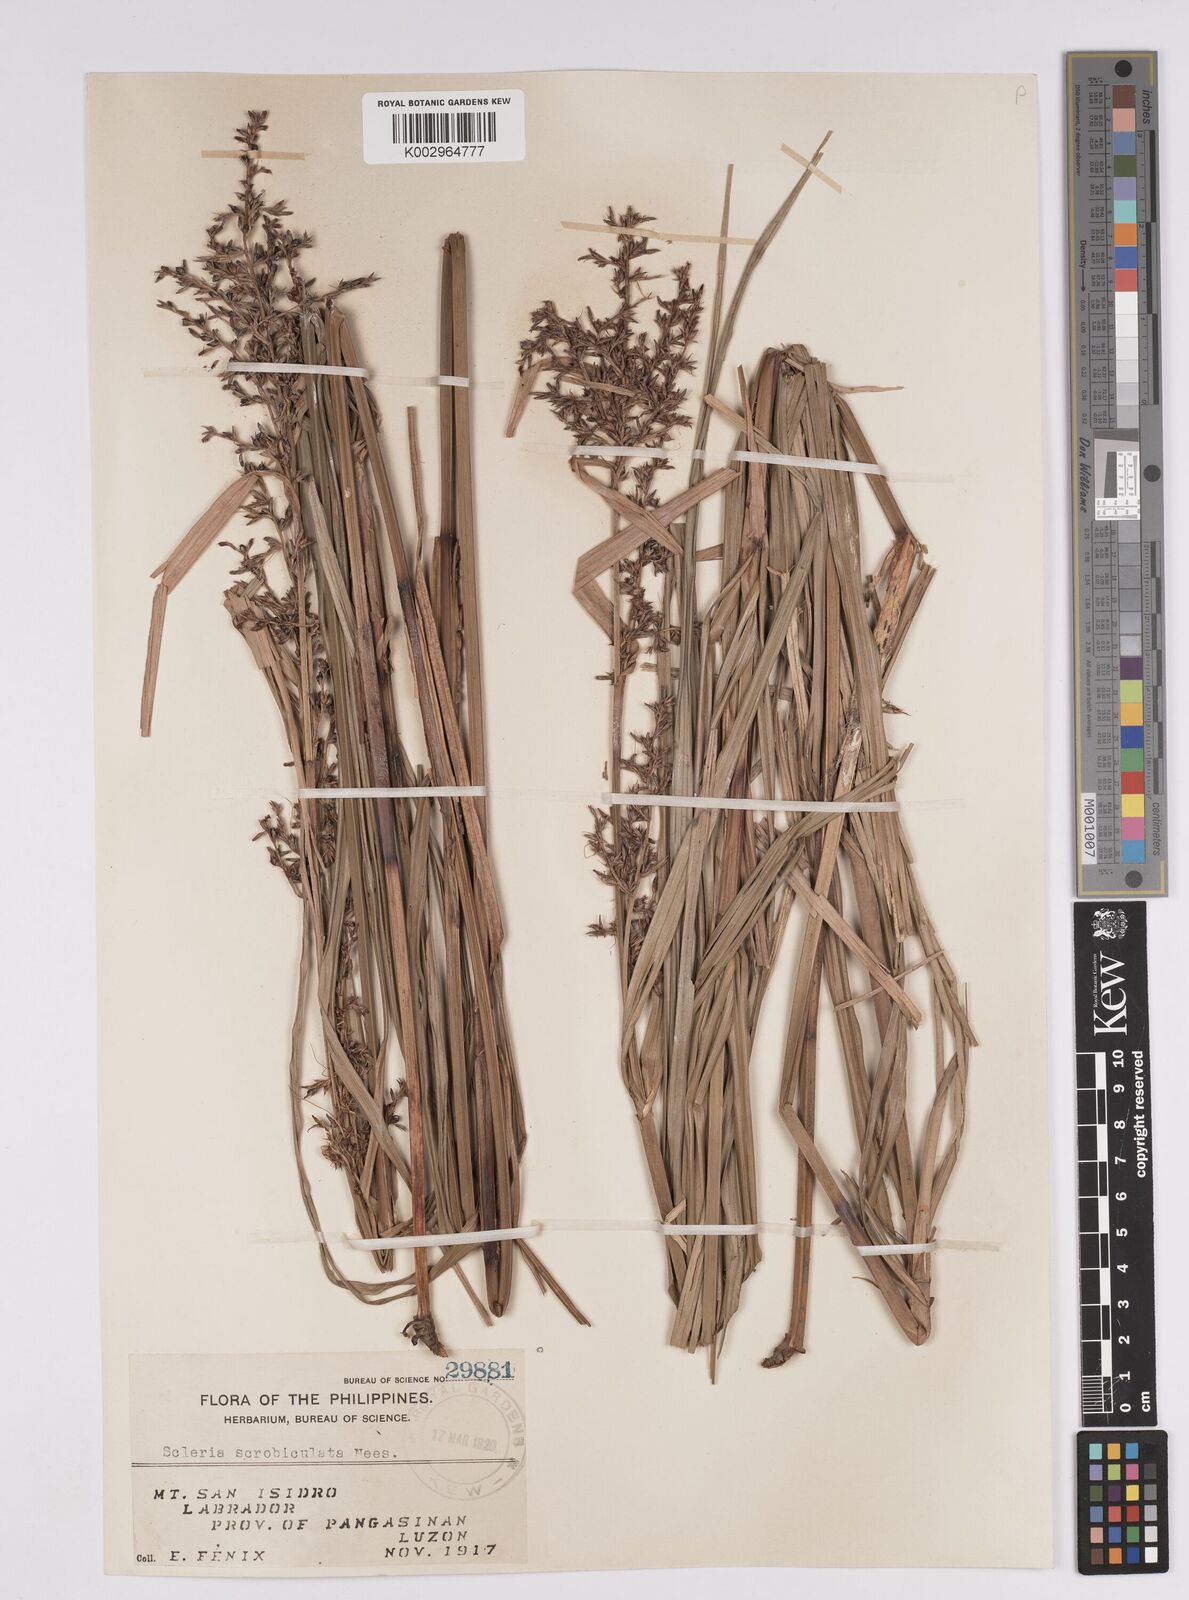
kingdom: Plantae
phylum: Tracheophyta
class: Liliopsida
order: Poales
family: Cyperaceae
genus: Scleria
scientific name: Scleria scrobiculata
